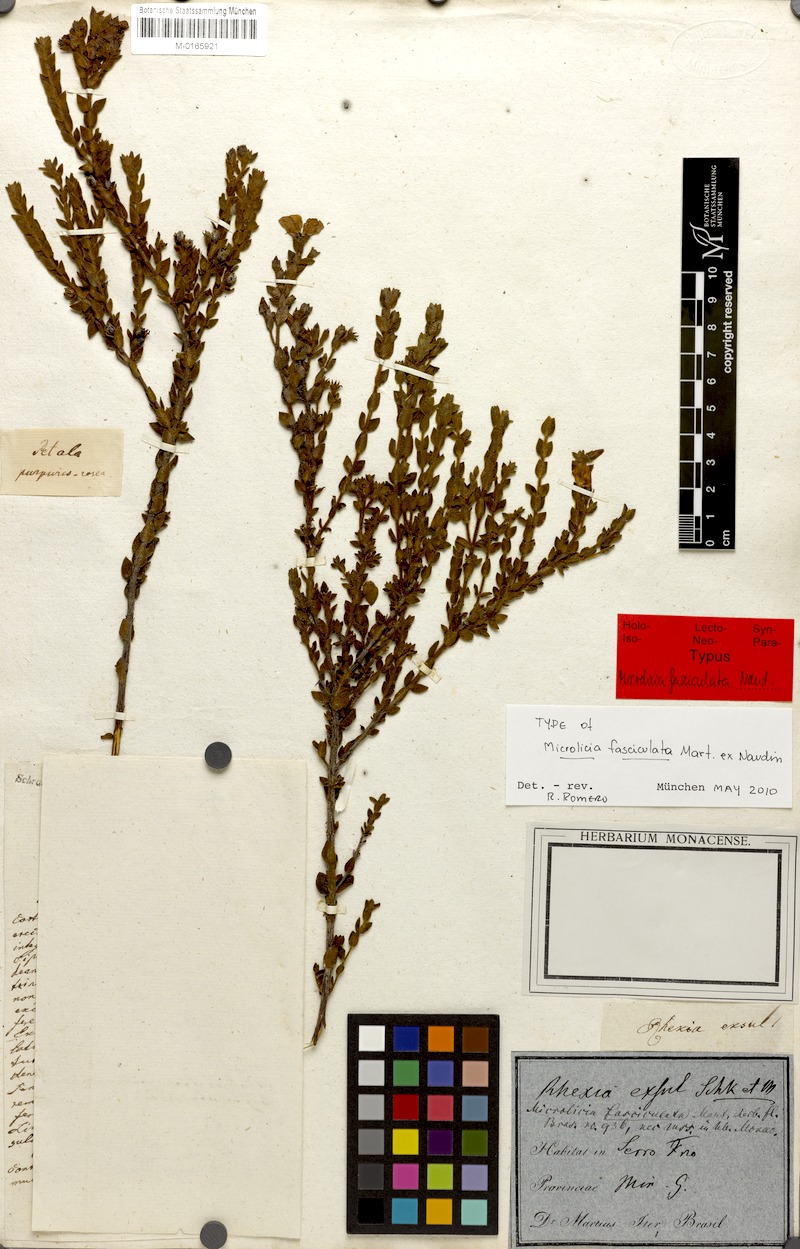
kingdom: Plantae
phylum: Tracheophyta
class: Magnoliopsida
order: Myrtales
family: Melastomataceae
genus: Microlicia
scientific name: Microlicia fasciculata
